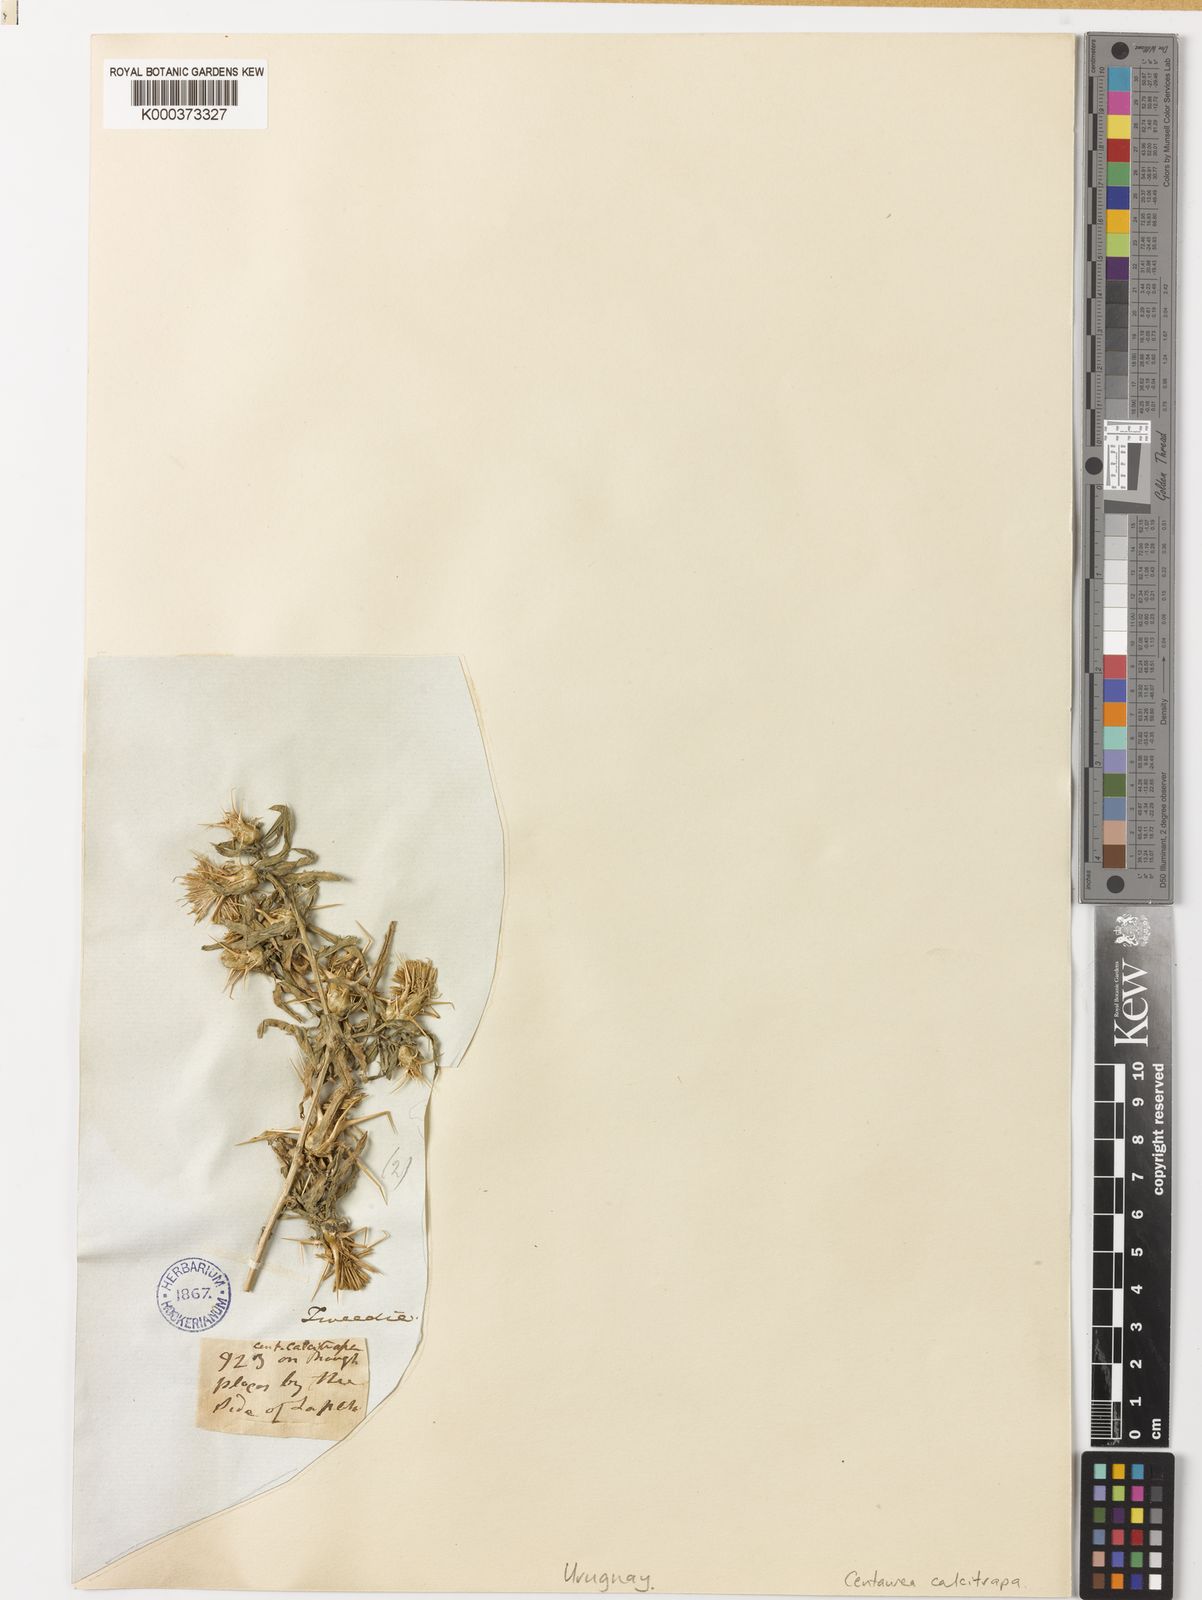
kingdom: Plantae
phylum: Tracheophyta
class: Magnoliopsida
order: Asterales
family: Asteraceae
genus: Centaurea
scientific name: Centaurea calcitrapa
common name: Red star-thistle
